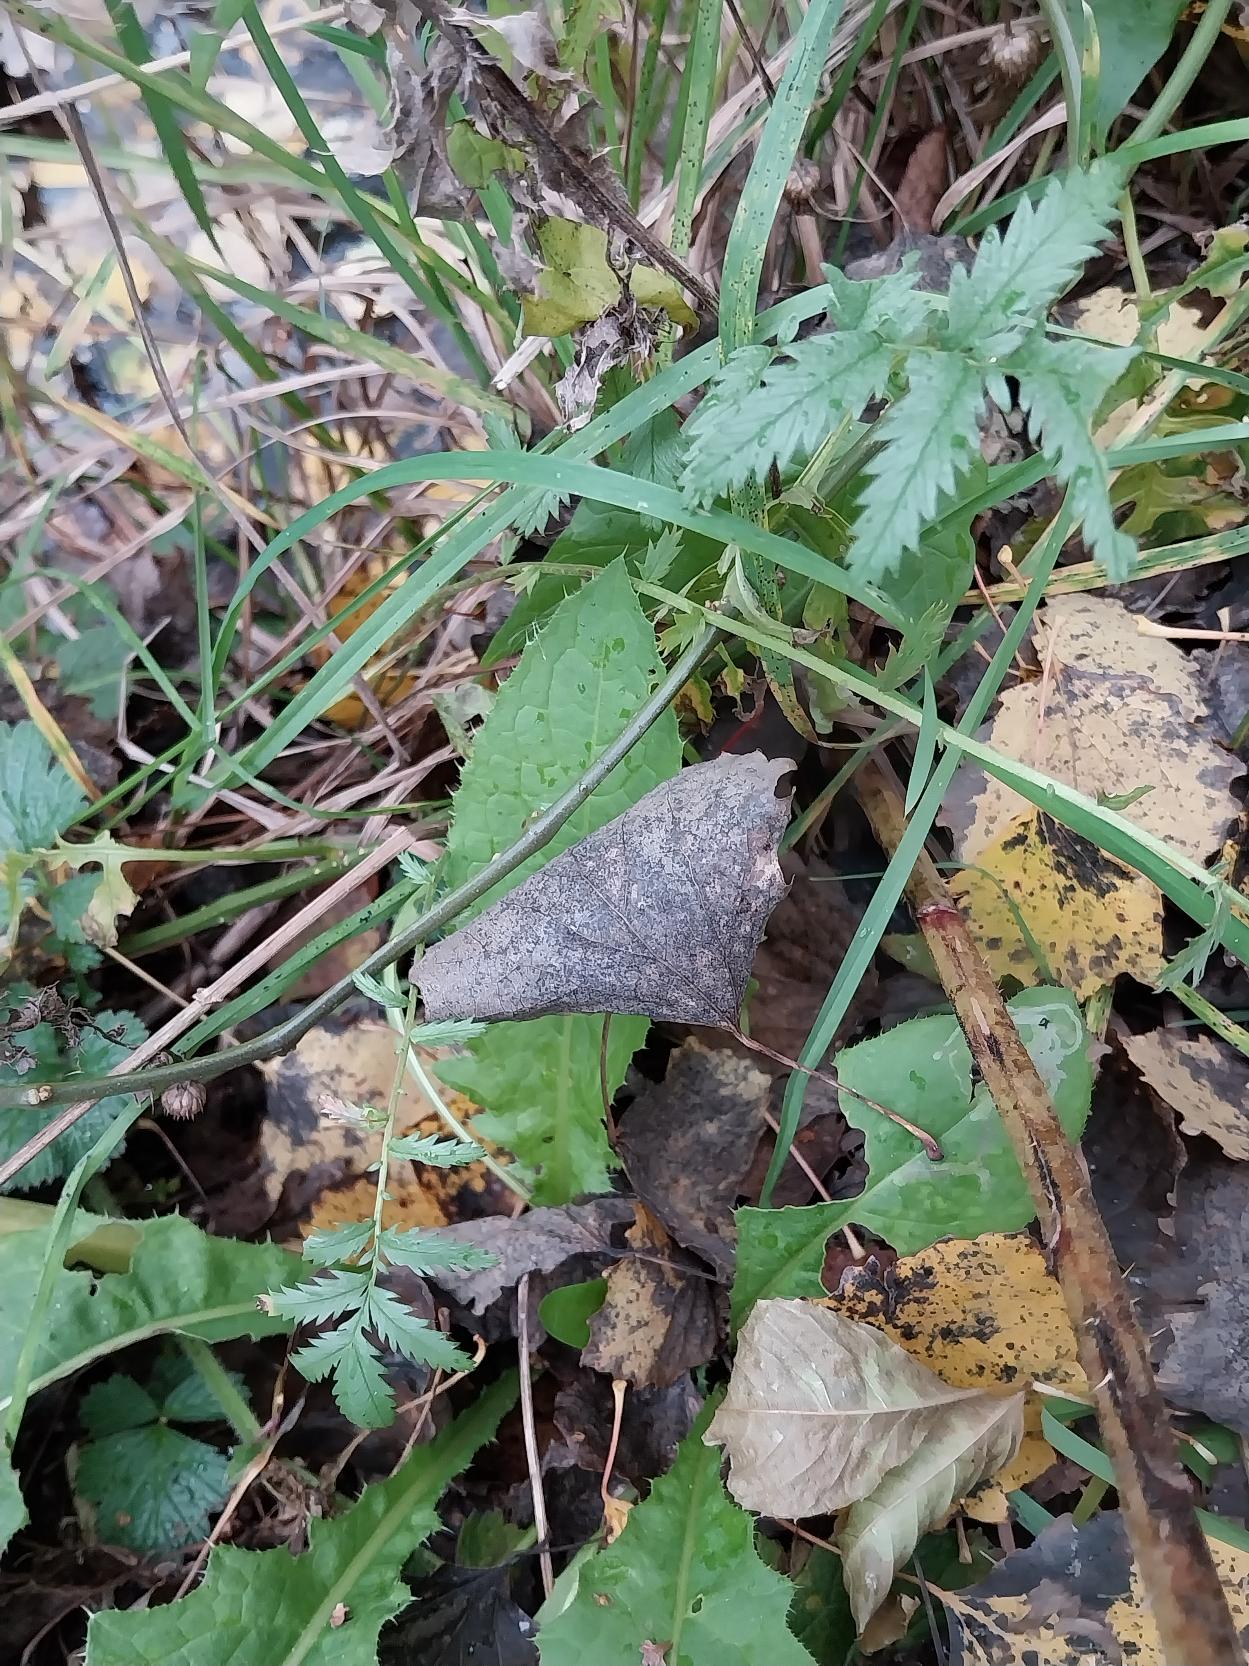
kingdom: Plantae
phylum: Tracheophyta
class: Magnoliopsida
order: Rosales
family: Rosaceae
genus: Argentina
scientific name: Argentina anserina
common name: Gåsepotentil
